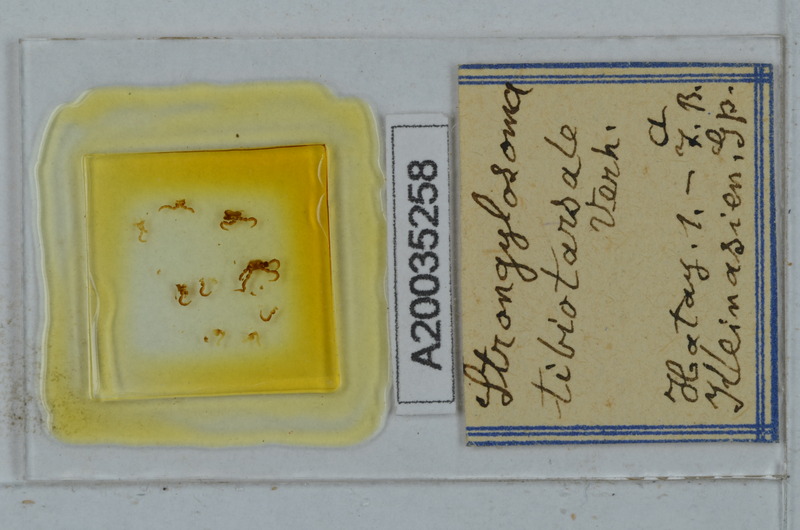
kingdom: Animalia
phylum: Arthropoda
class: Diplopoda
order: Polydesmida
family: Paradoxosomatidae
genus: Lohmanderodesmus
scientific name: Lohmanderodesmus galeatus
